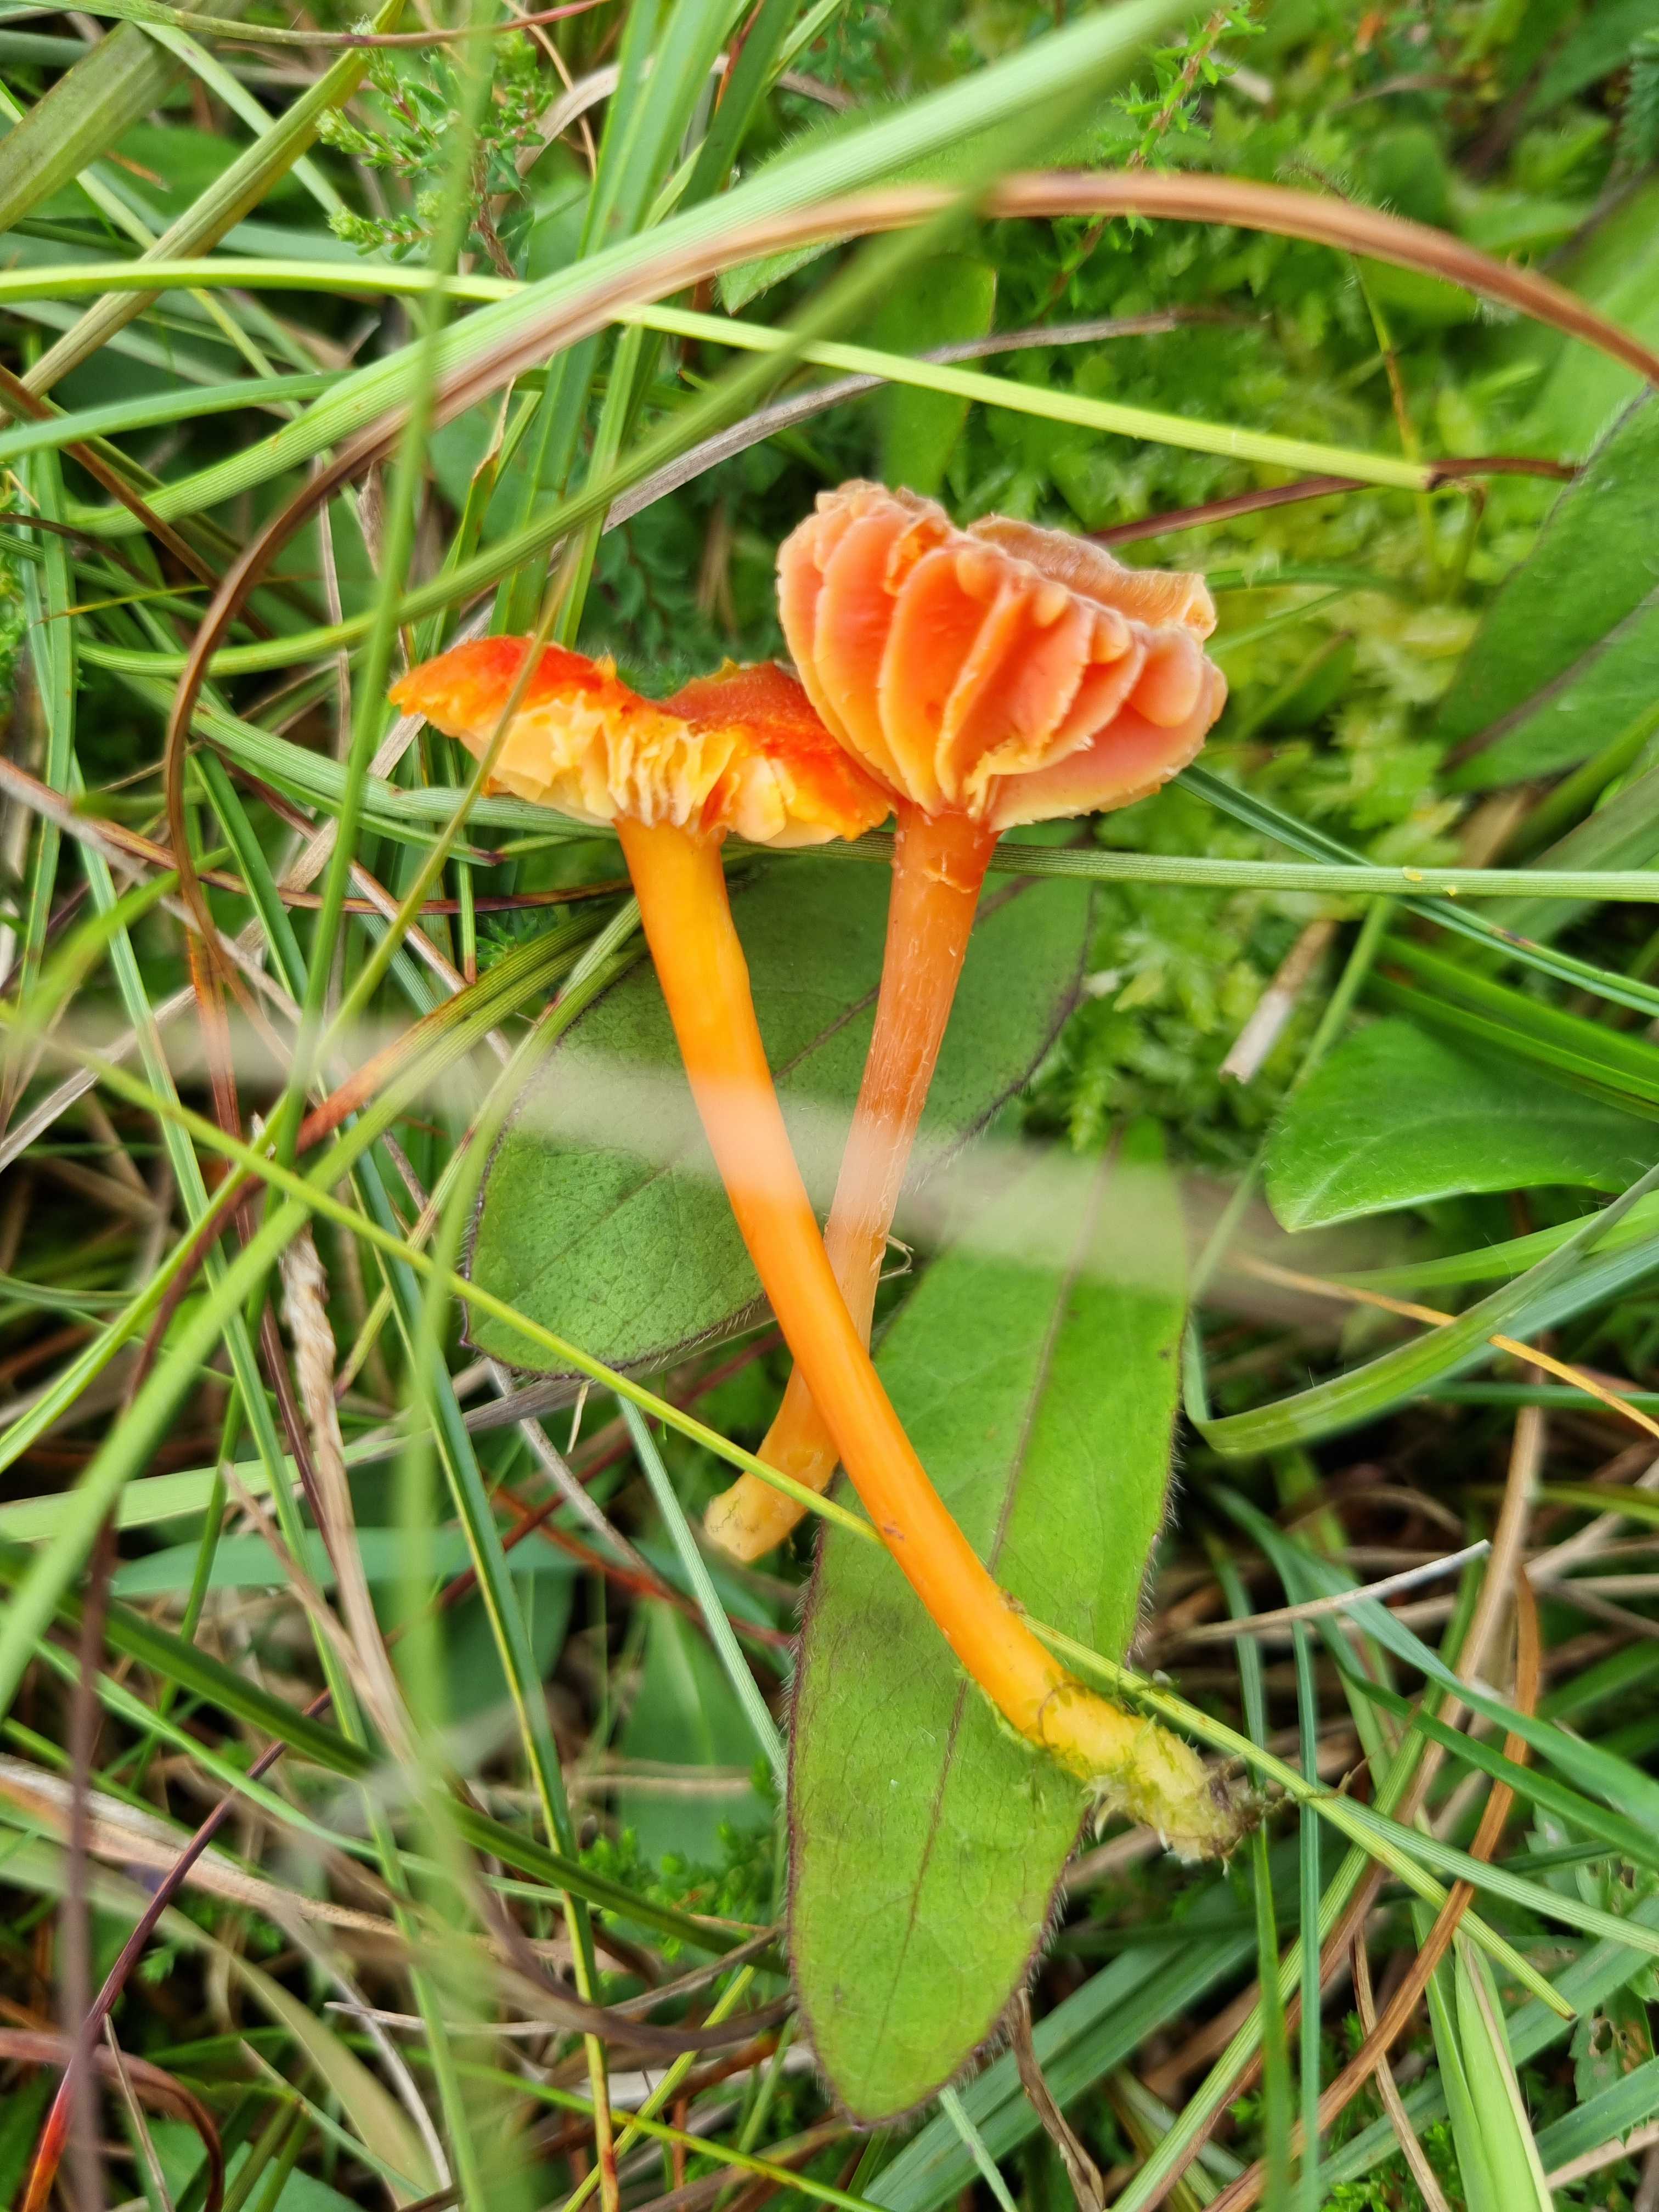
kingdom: Fungi
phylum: Basidiomycota
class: Agaricomycetes
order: Agaricales
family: Hygrophoraceae
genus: Hygrocybe
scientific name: Hygrocybe cantharellus
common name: kantarel-vokshat
